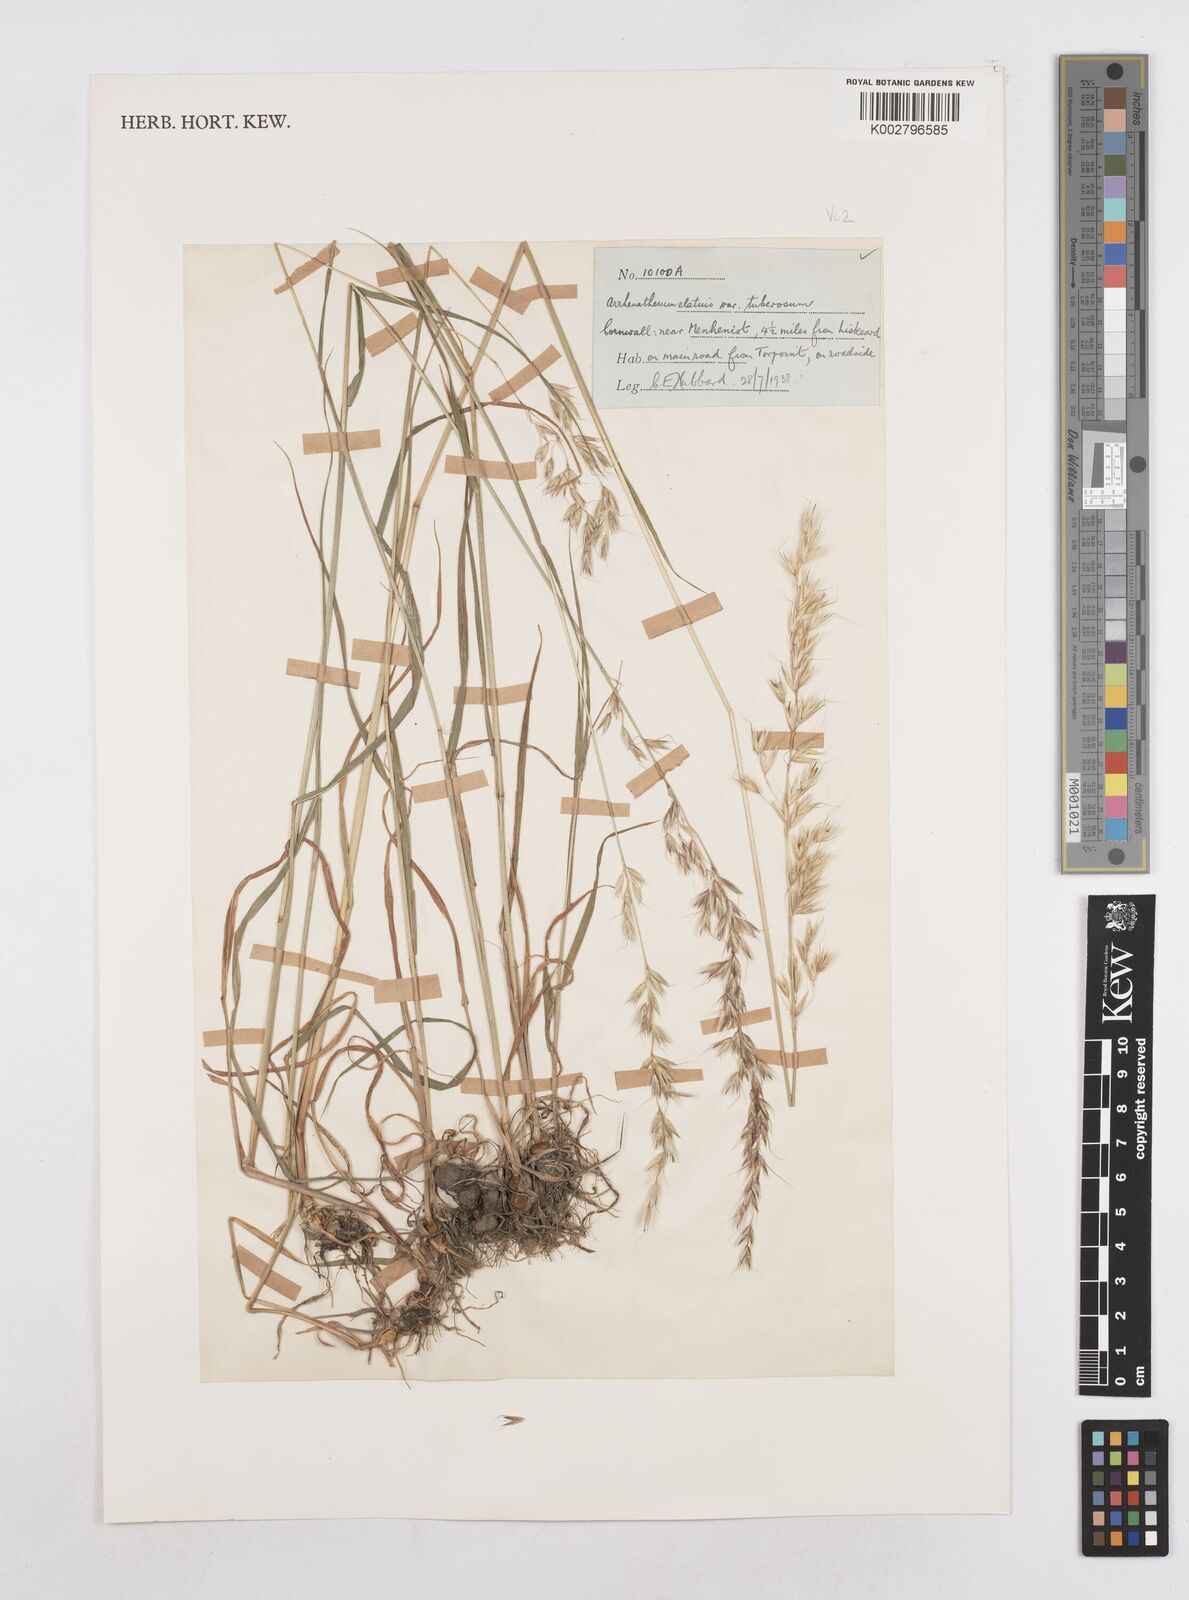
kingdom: Plantae
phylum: Tracheophyta
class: Liliopsida
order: Poales
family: Poaceae
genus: Arrhenatherum
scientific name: Arrhenatherum elatius
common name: Tall oatgrass
